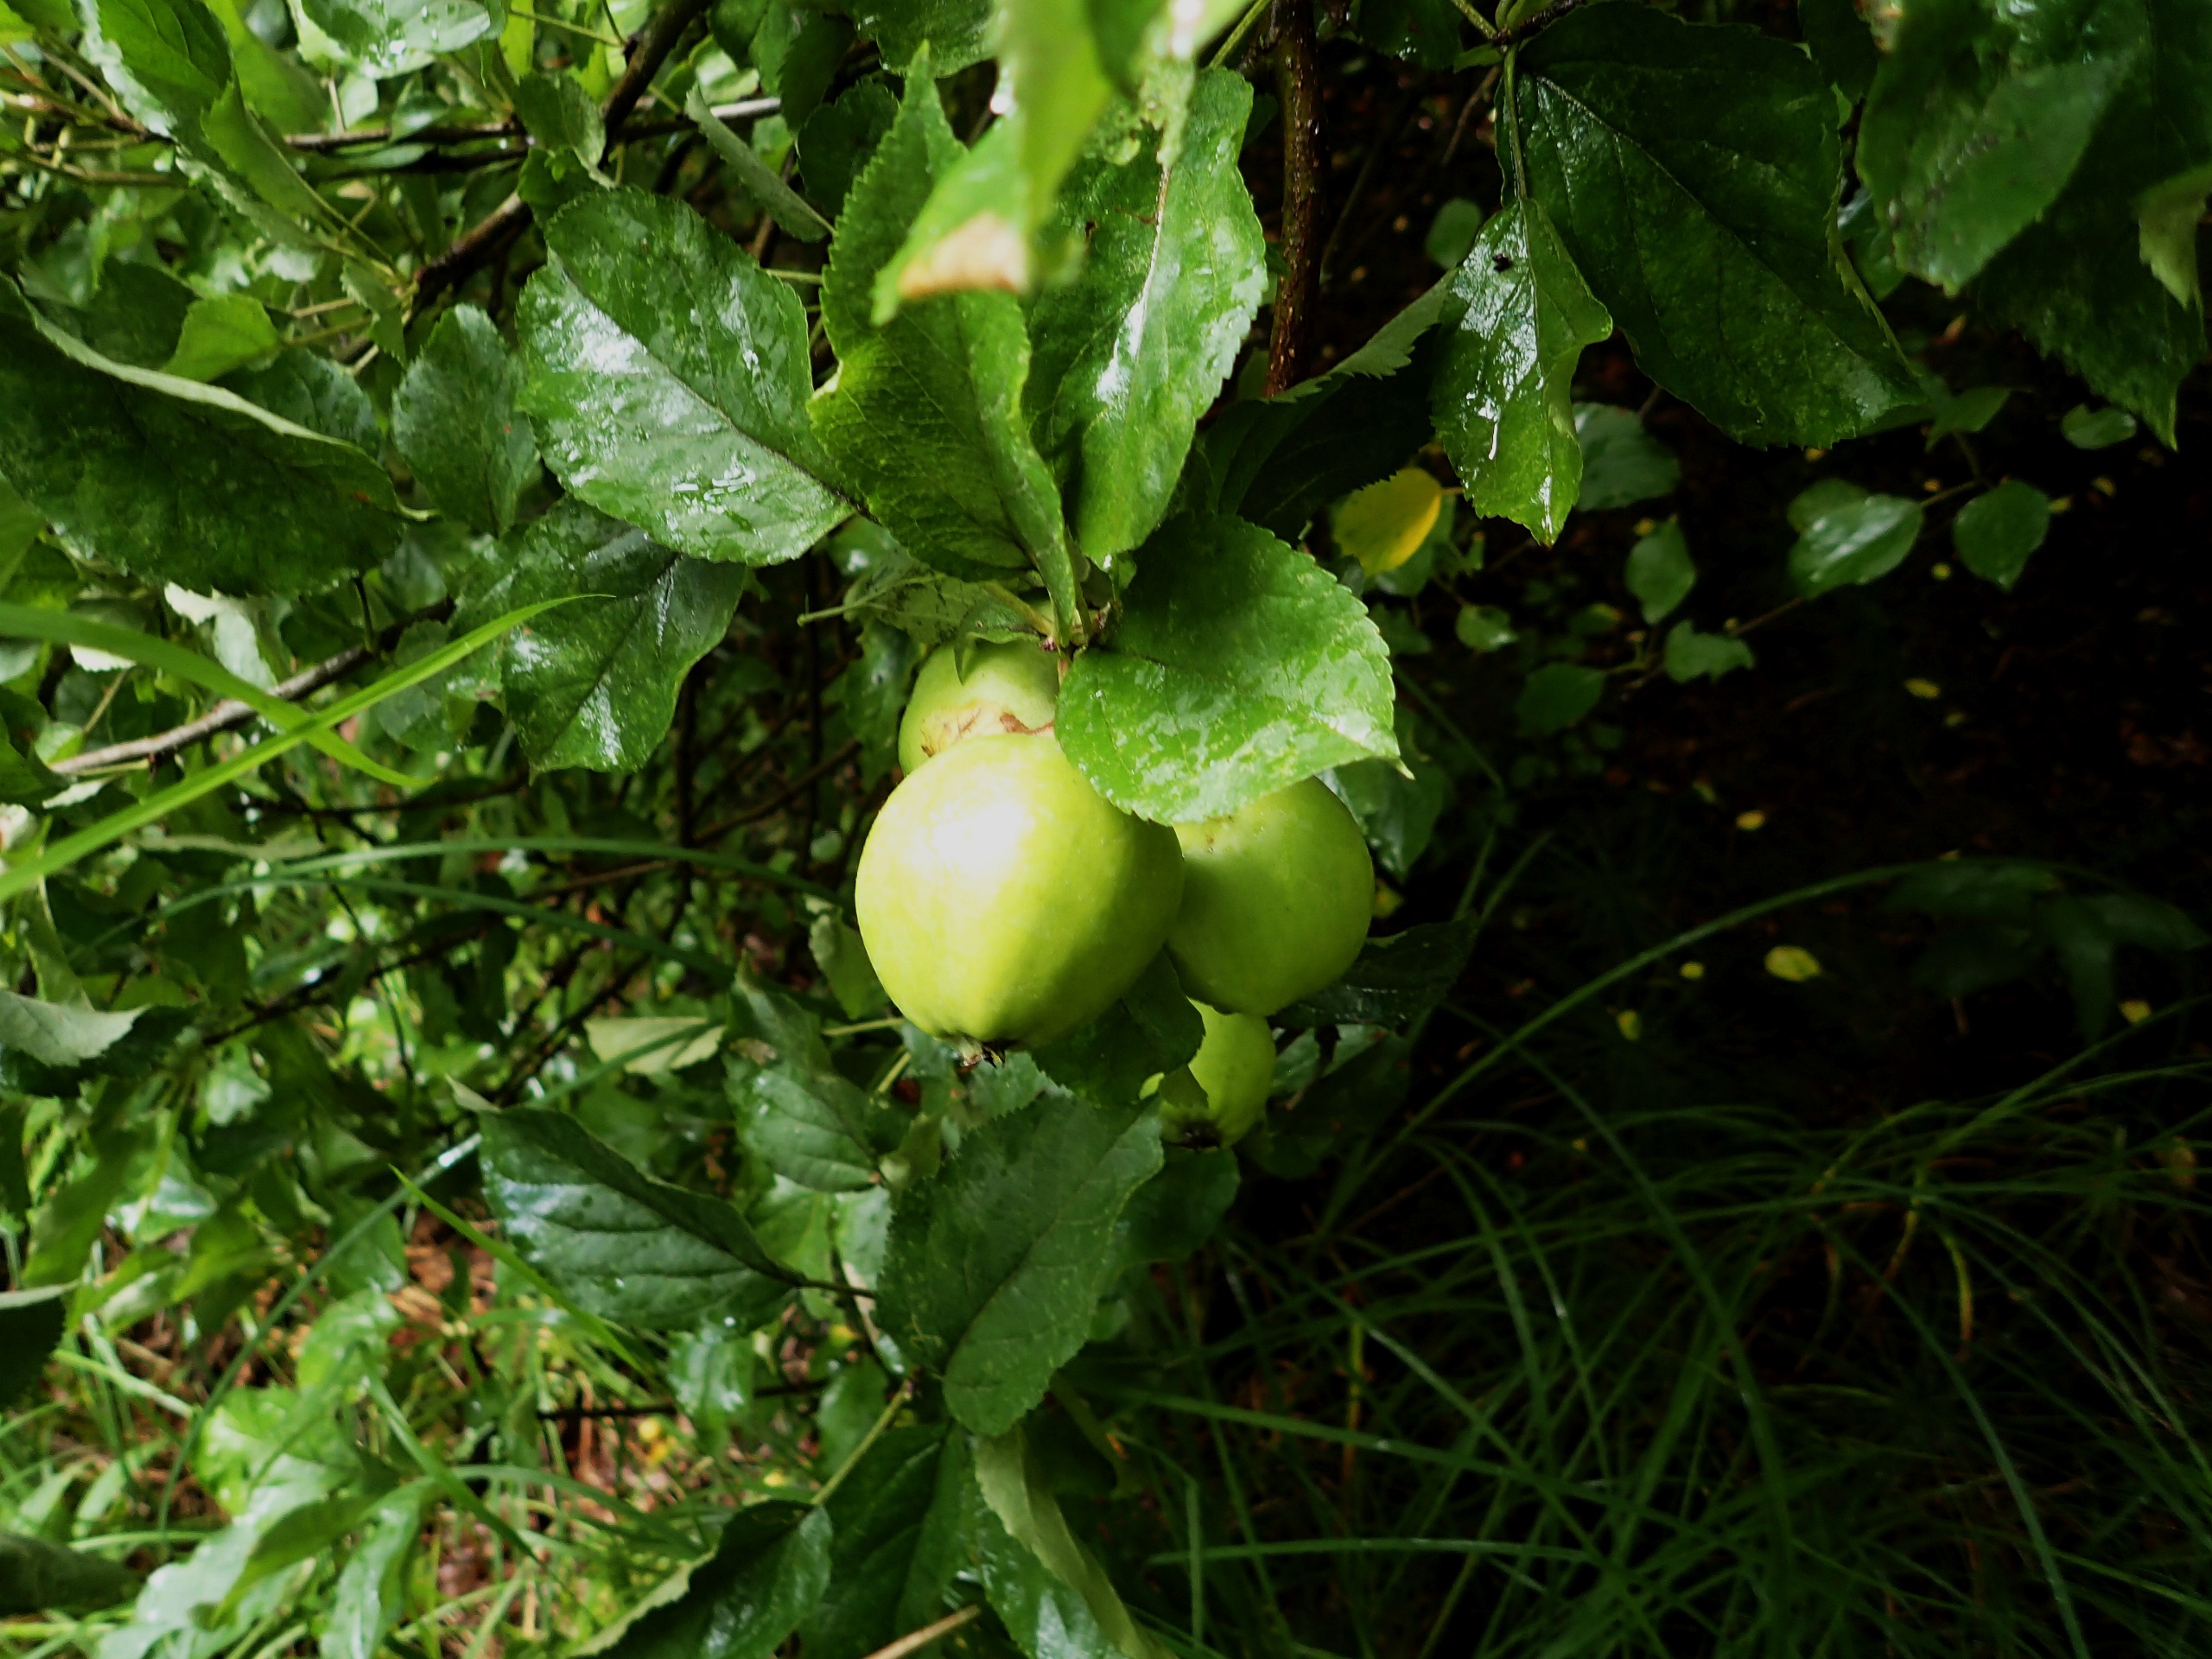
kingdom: Plantae
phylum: Tracheophyta
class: Magnoliopsida
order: Rosales
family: Rosaceae
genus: Malus
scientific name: Malus domestica
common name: Sød-æble
